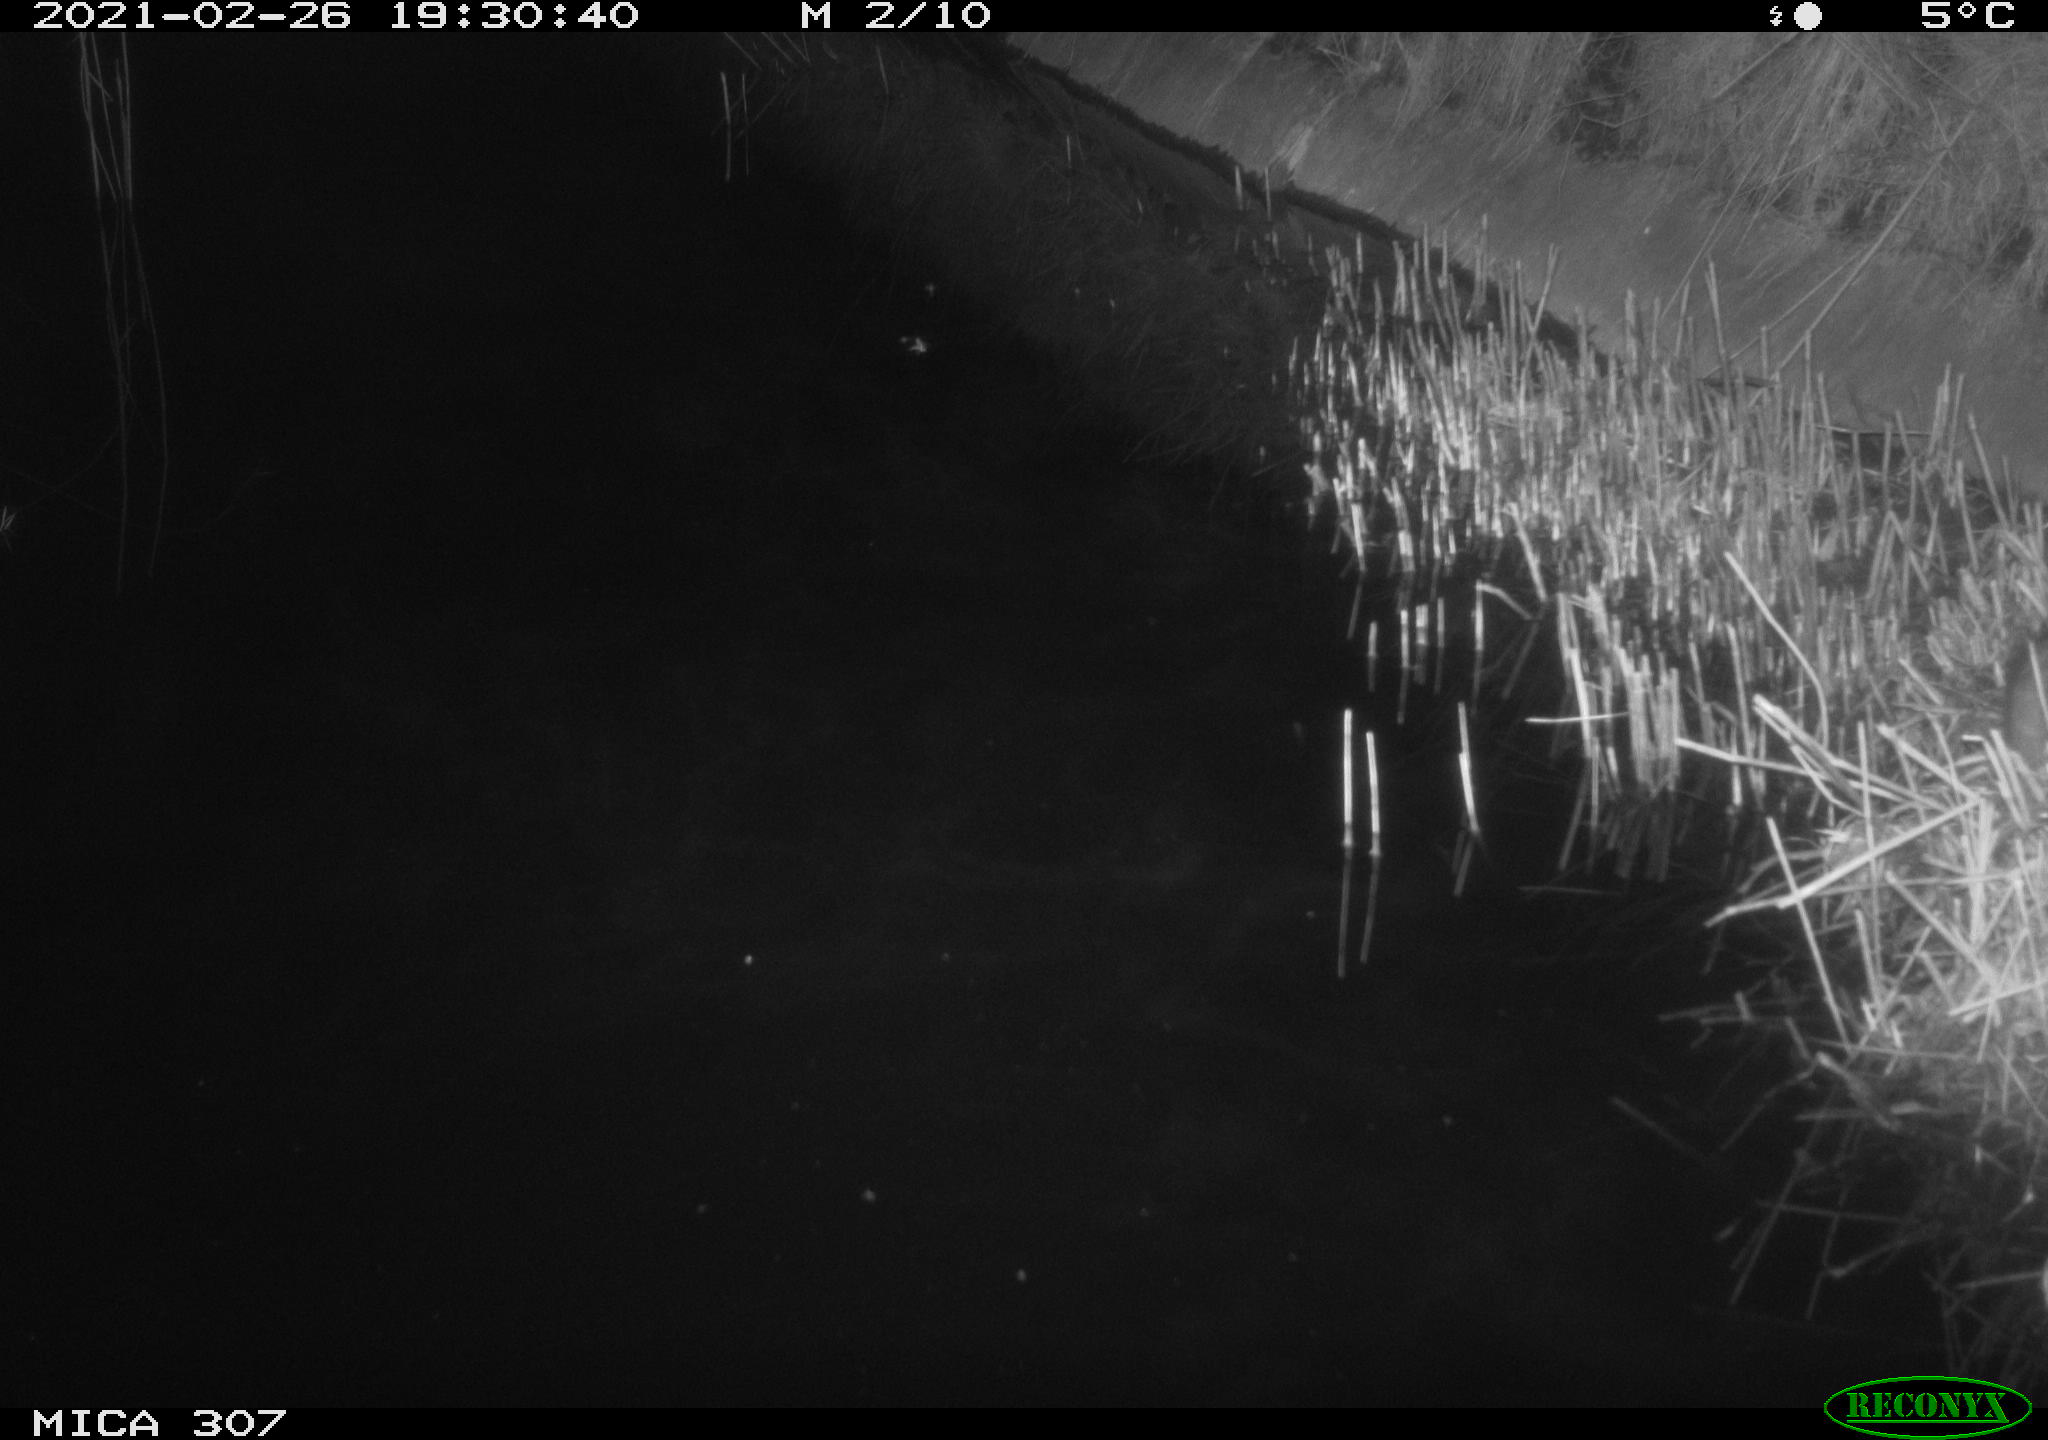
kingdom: Animalia
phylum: Chordata
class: Mammalia
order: Rodentia
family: Muridae
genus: Rattus
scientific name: Rattus norvegicus
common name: Brown rat
